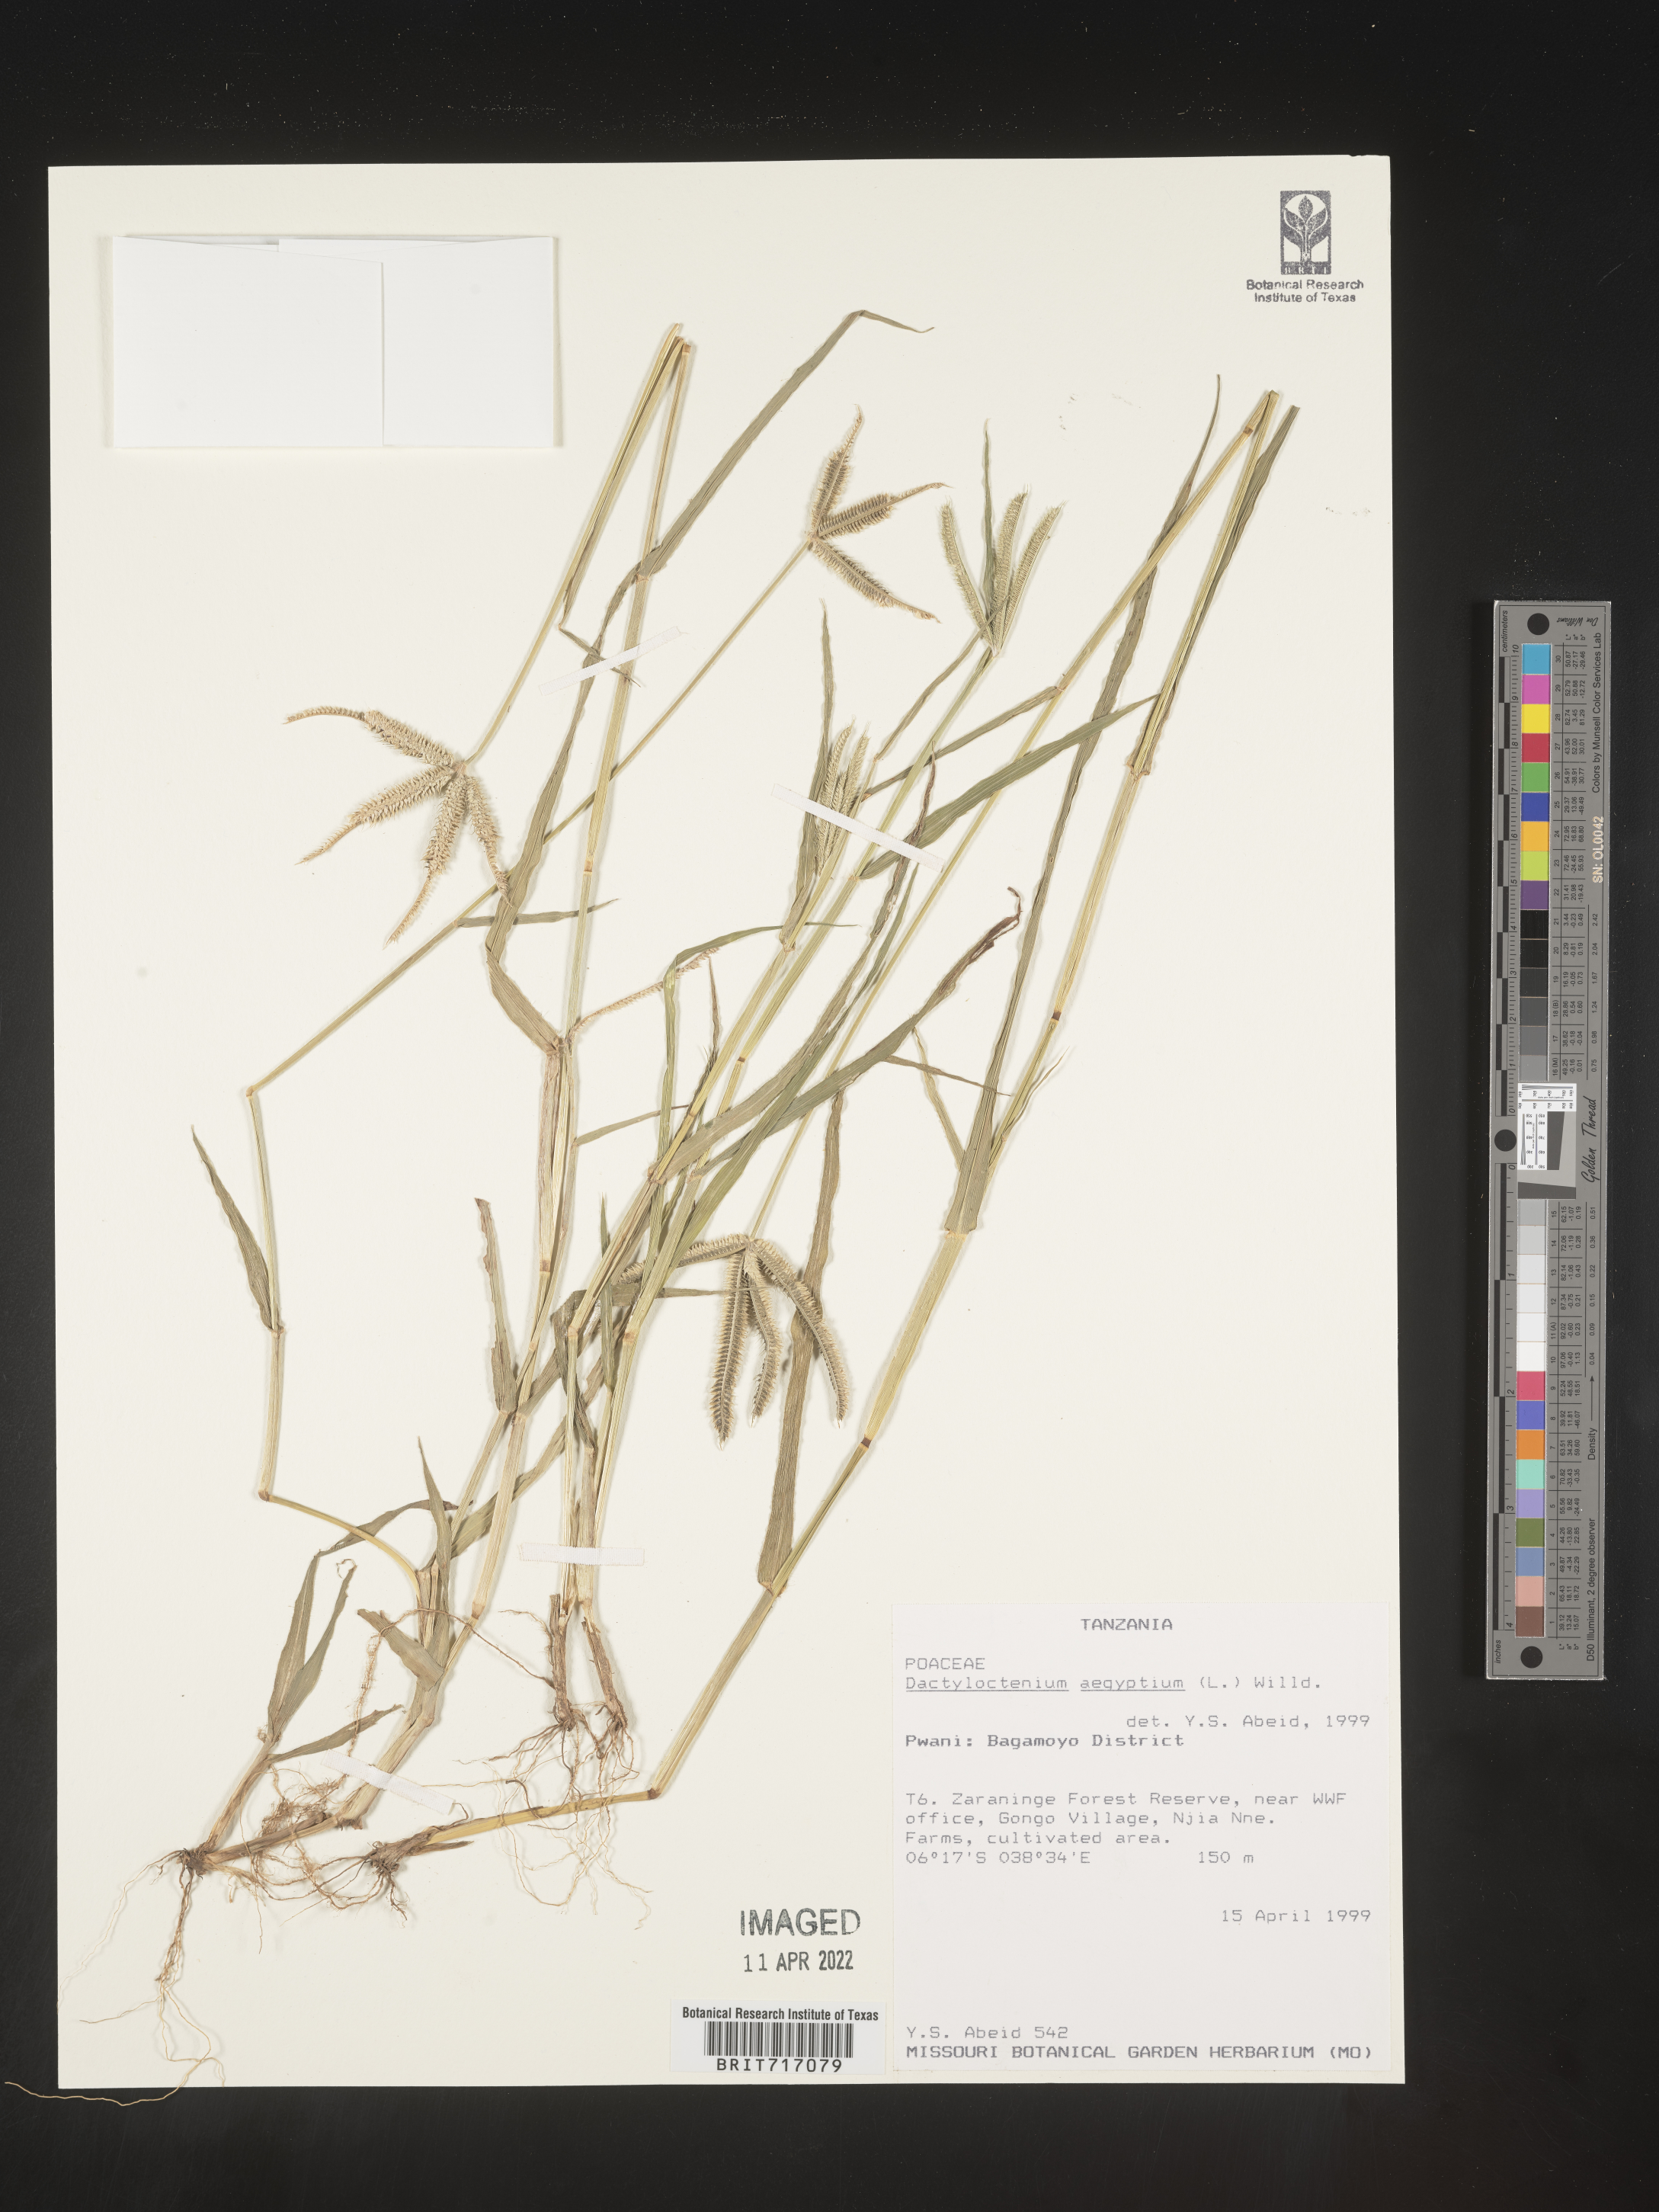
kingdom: Plantae
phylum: Tracheophyta
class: Liliopsida
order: Poales
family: Poaceae
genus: Dactyloctenium
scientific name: Dactyloctenium
